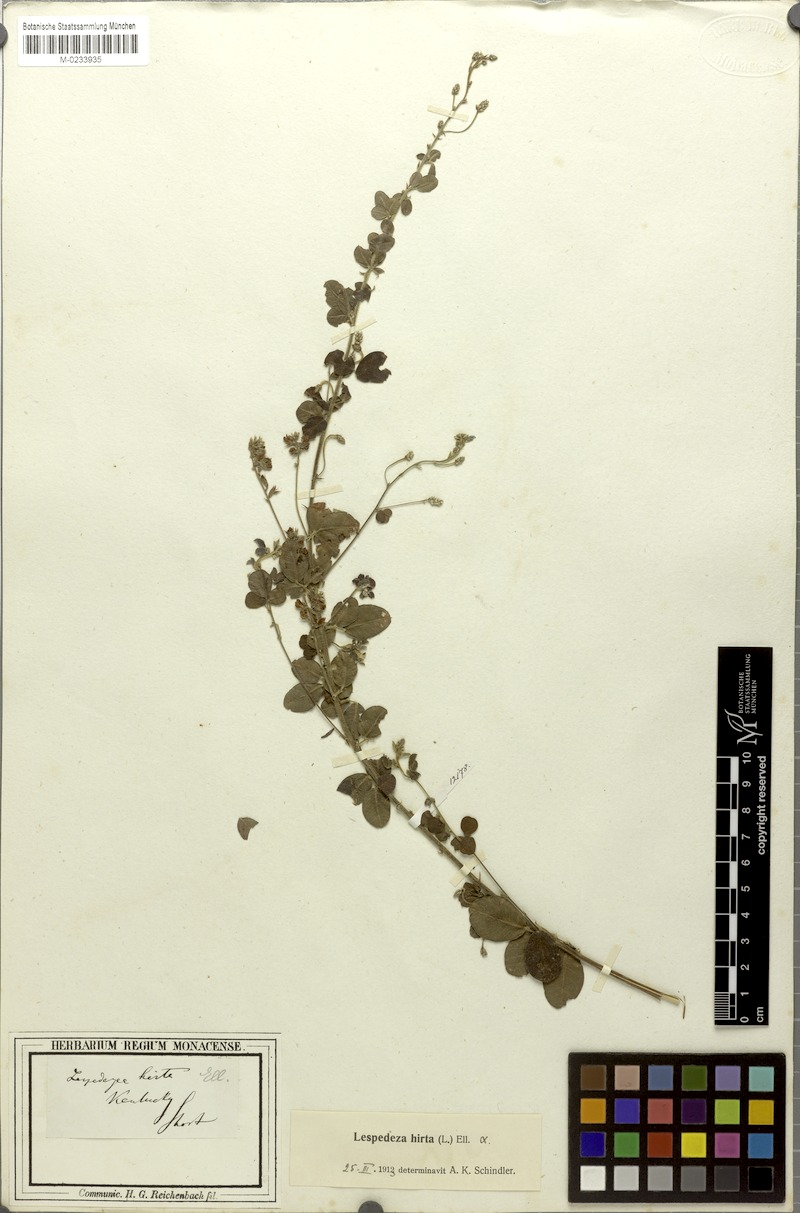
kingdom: Plantae
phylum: Tracheophyta
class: Magnoliopsida
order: Fabales
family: Fabaceae
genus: Lespedeza
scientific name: Lespedeza hirta
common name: Hairy lespedeza
